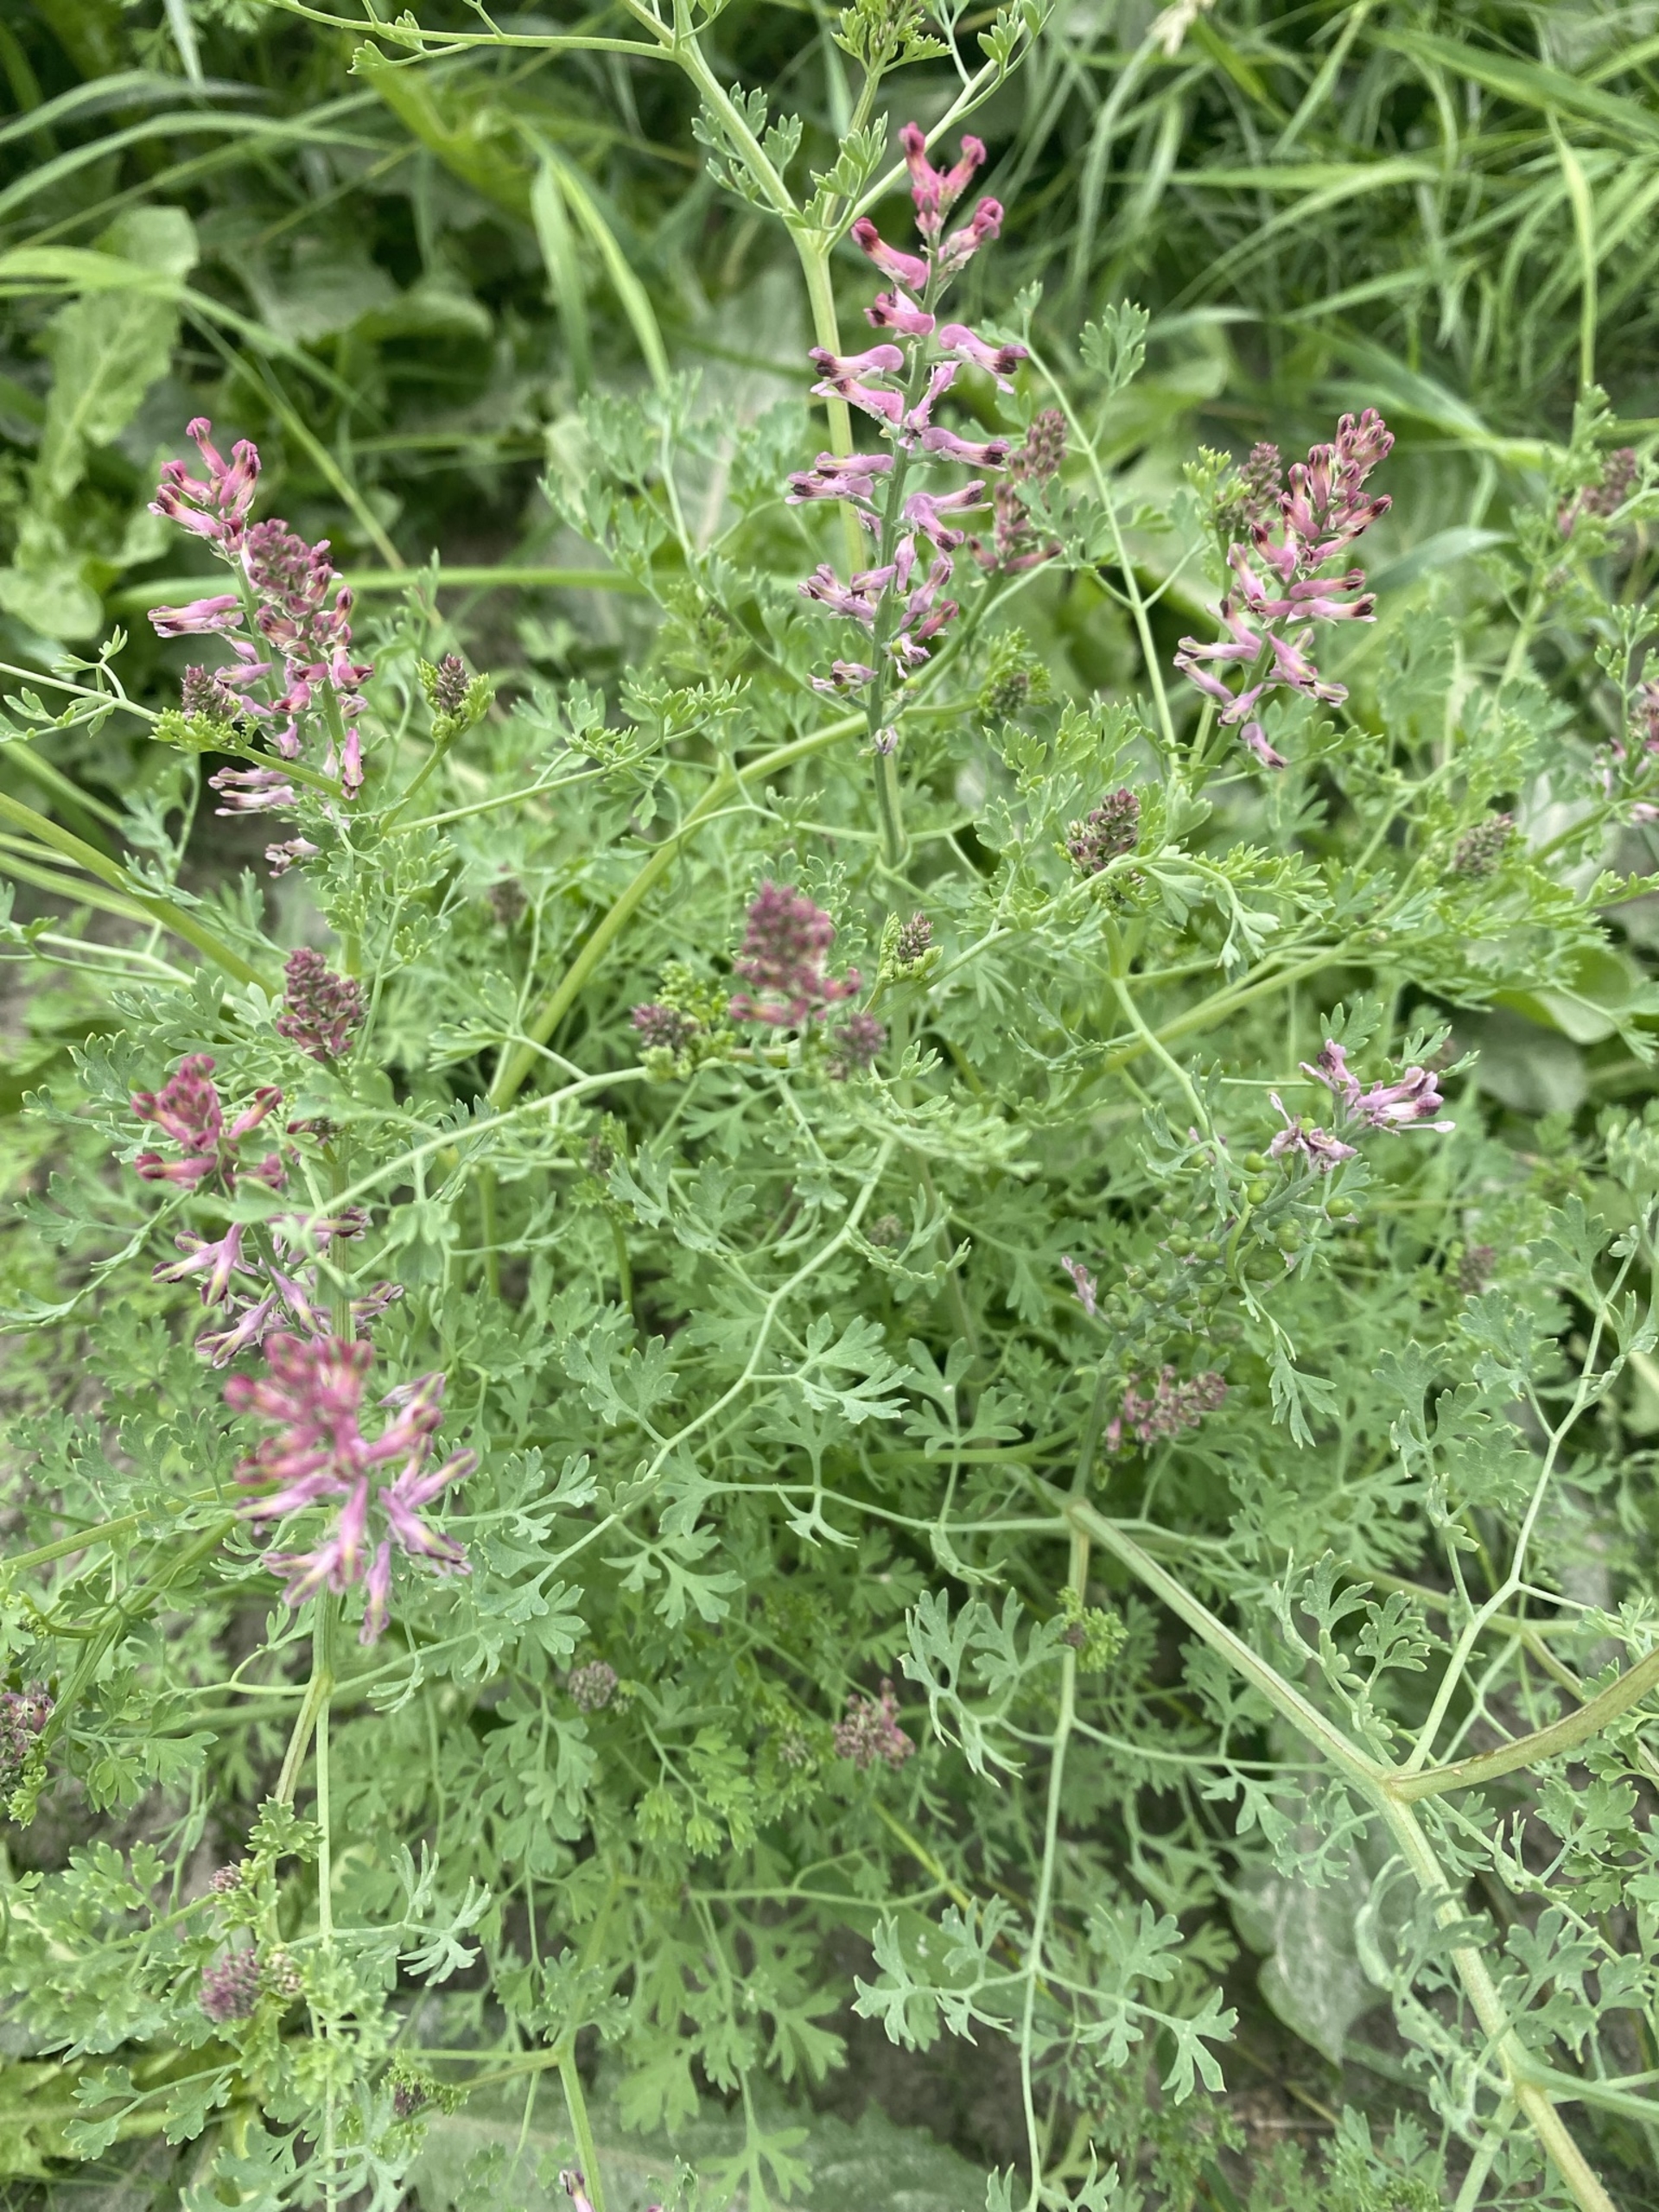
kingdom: Plantae
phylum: Tracheophyta
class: Magnoliopsida
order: Ranunculales
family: Papaveraceae
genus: Fumaria
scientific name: Fumaria officinalis
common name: Læge-jordrøg
